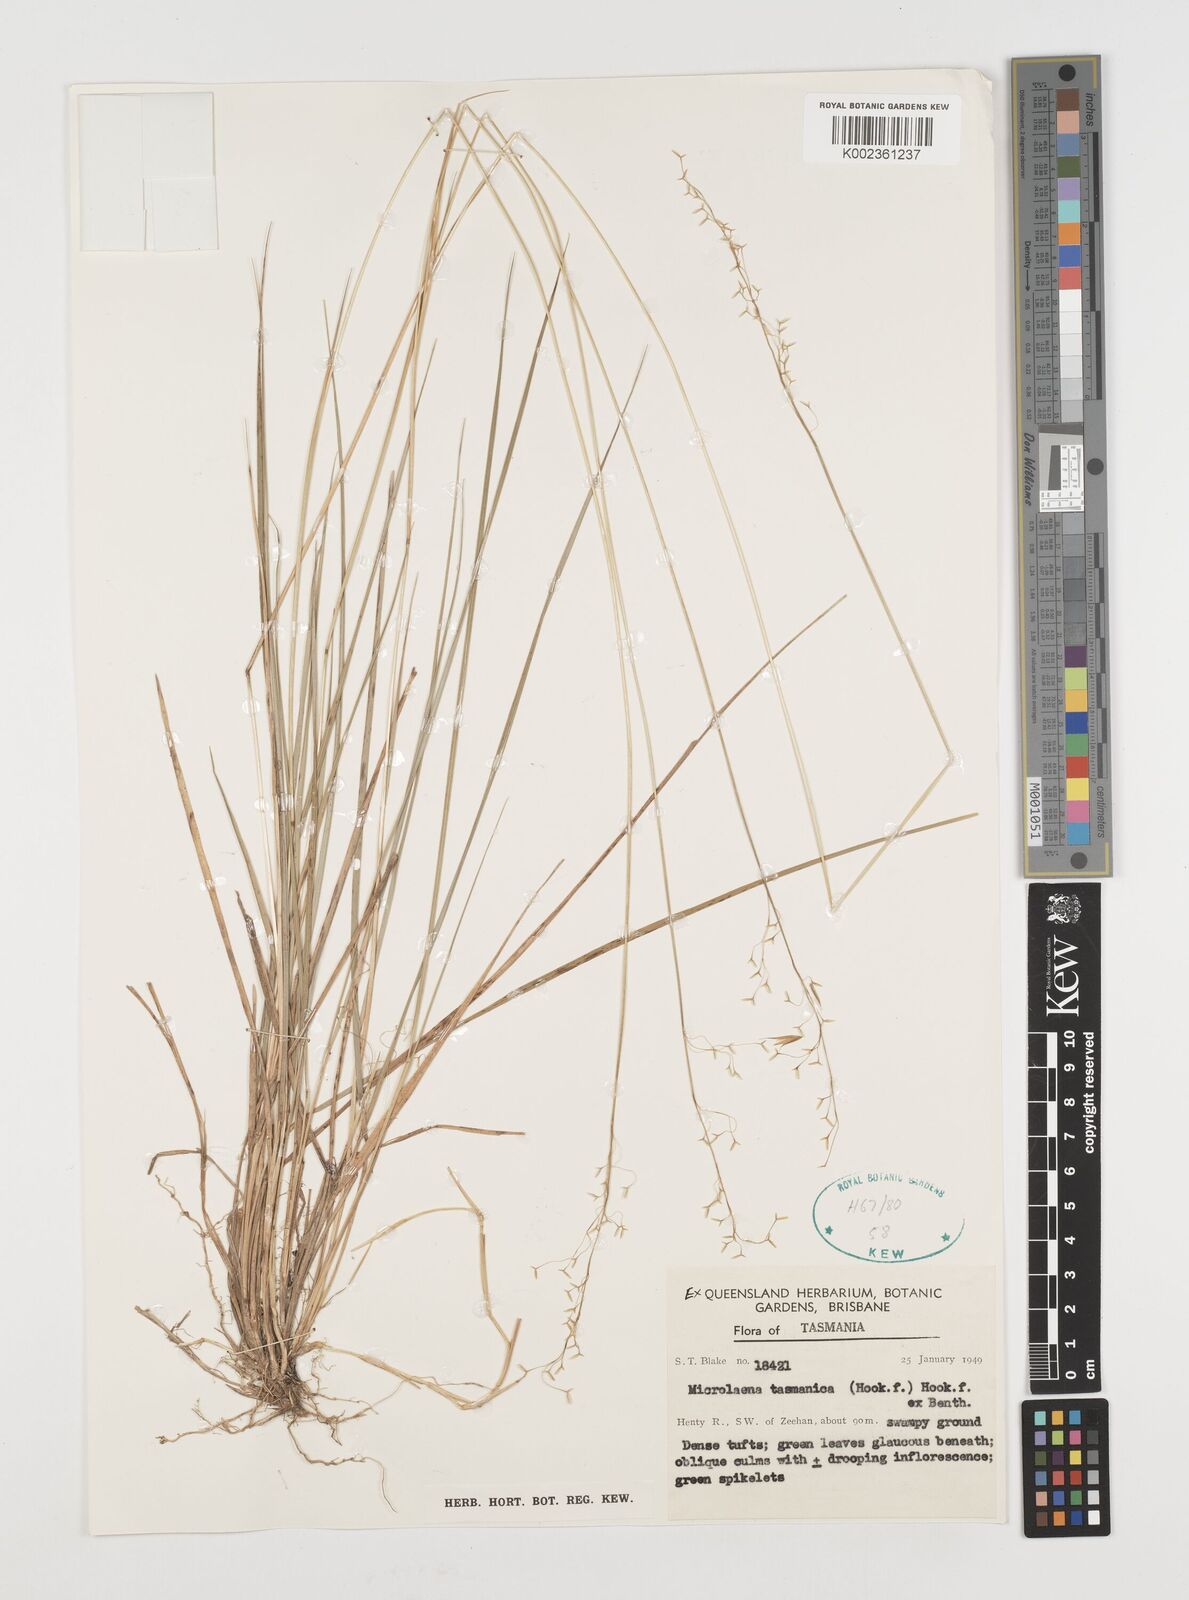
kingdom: Plantae
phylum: Tracheophyta
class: Liliopsida
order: Poales
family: Poaceae
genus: Microlaena
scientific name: Microlaena tasmanica
